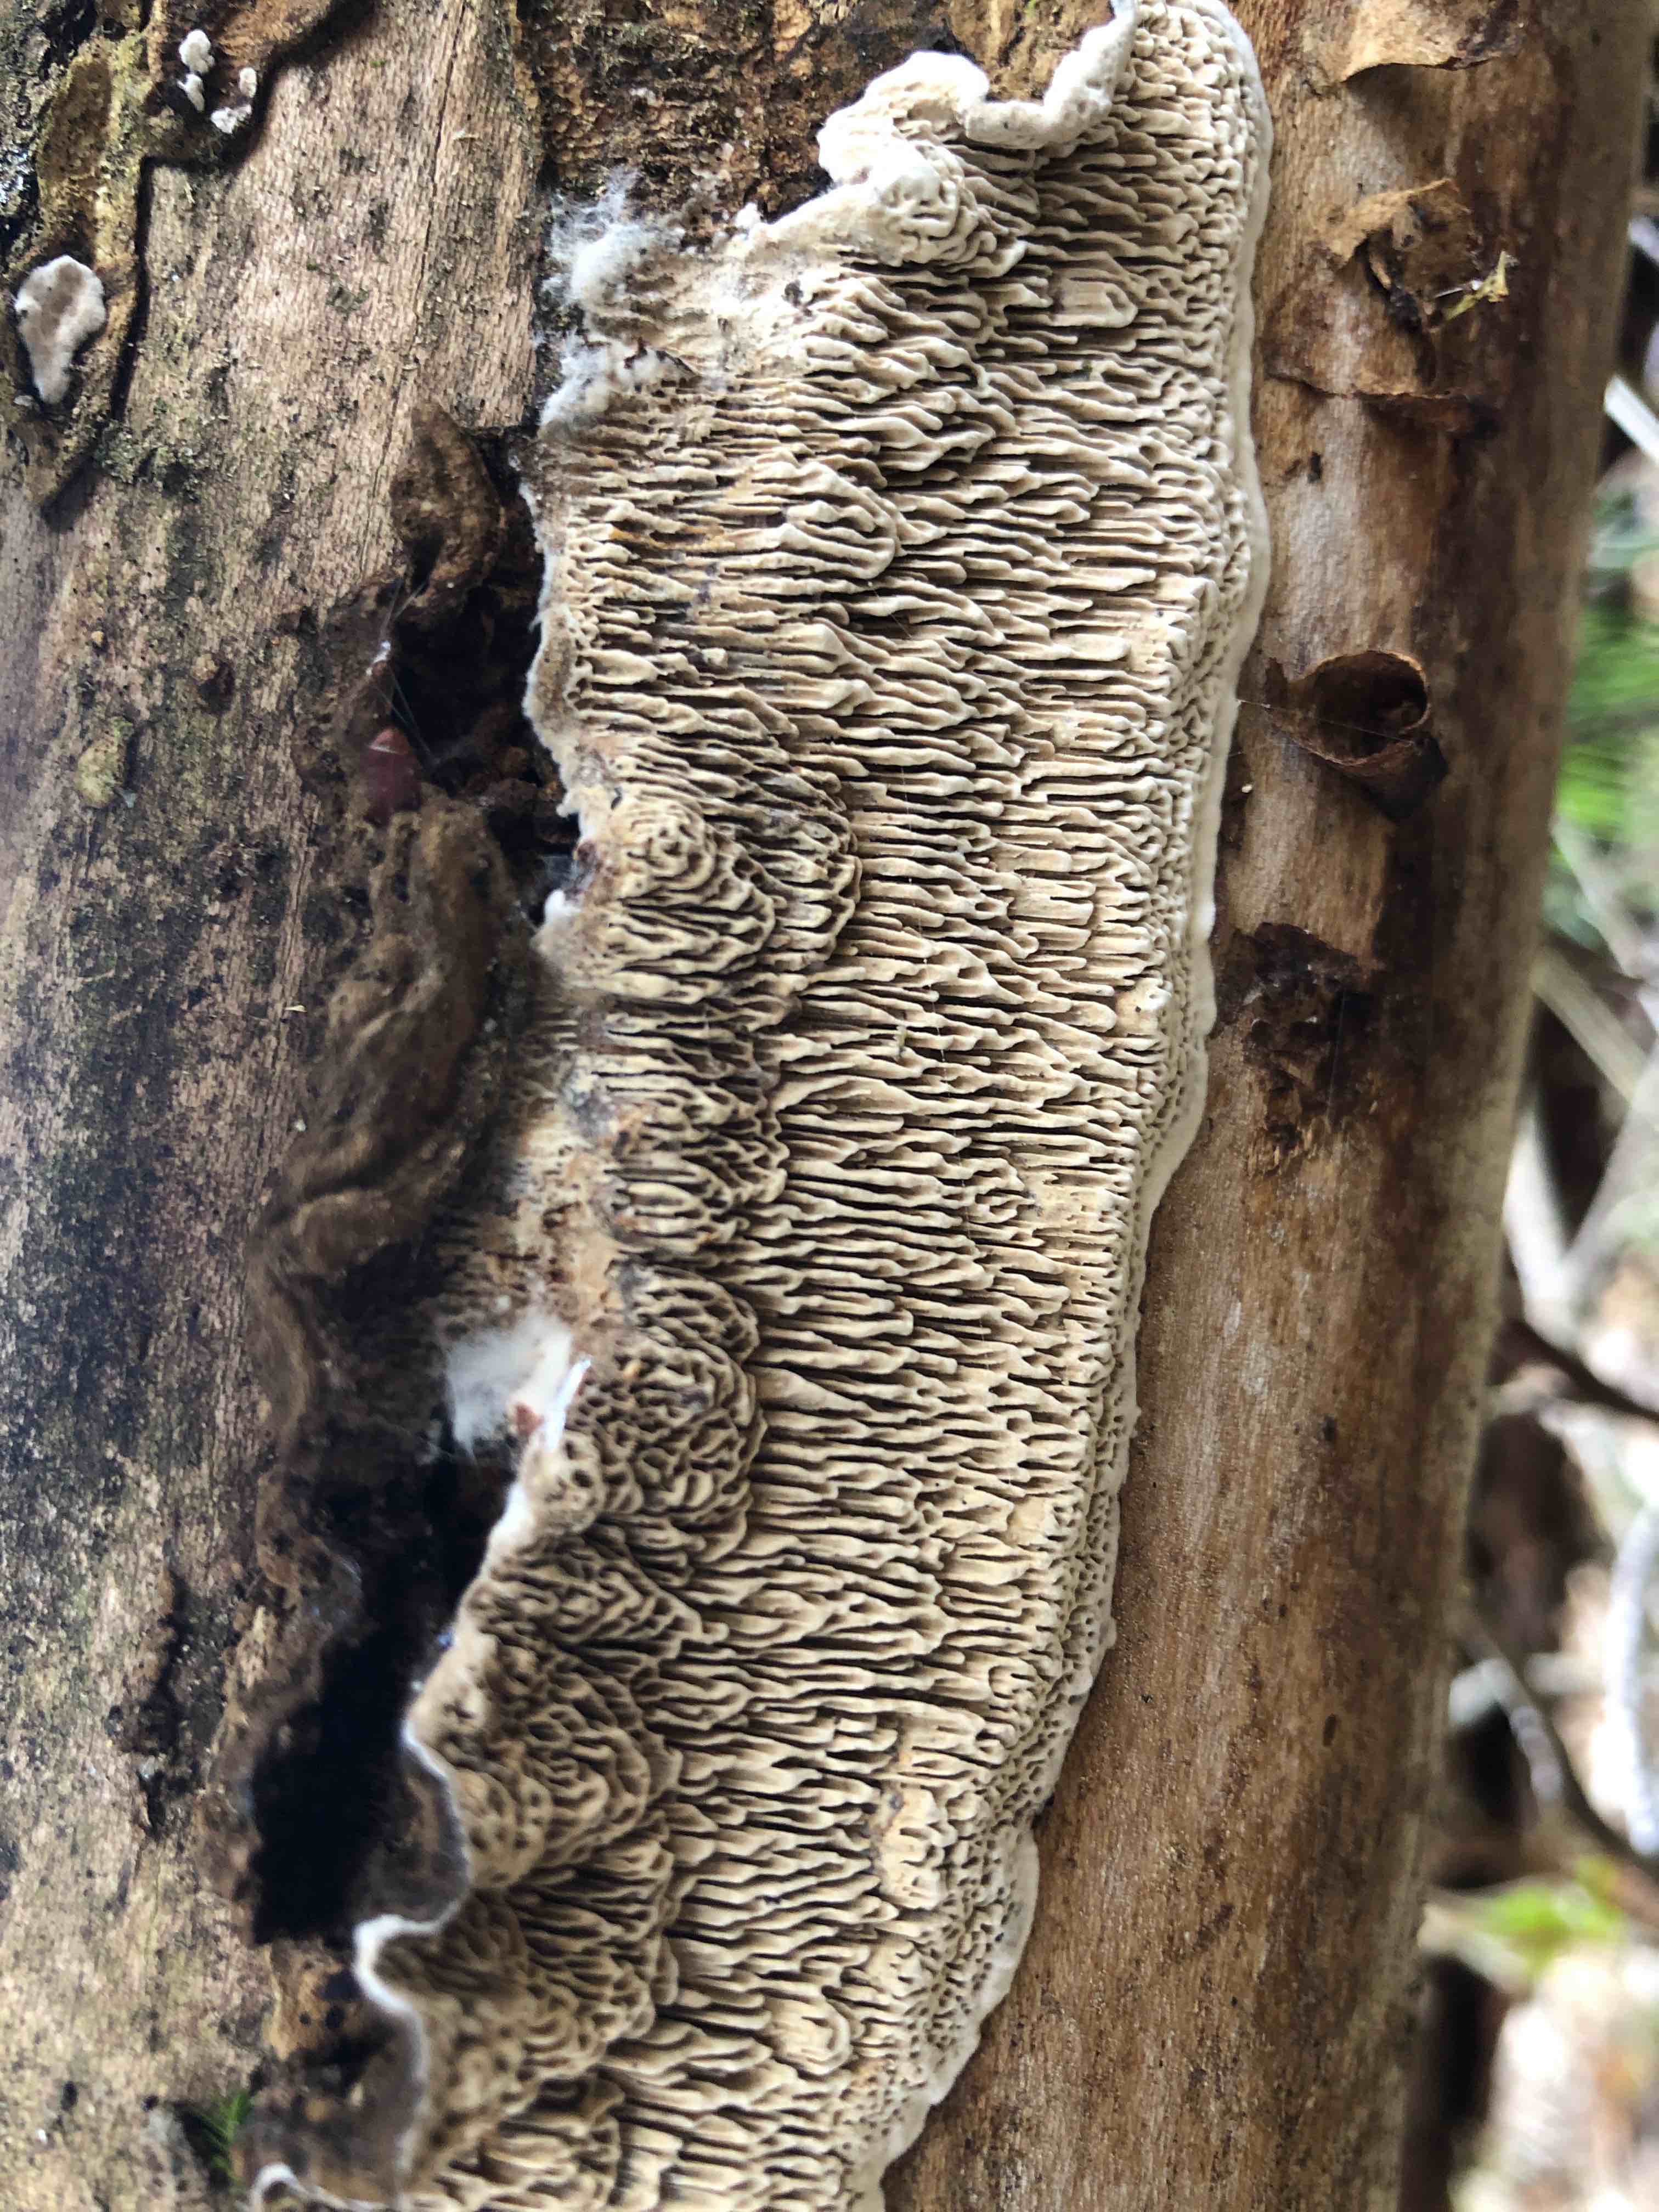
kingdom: Fungi
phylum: Basidiomycota
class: Agaricomycetes
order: Polyporales
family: Polyporaceae
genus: Podofomes
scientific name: Podofomes mollis
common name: blød begporesvamp
